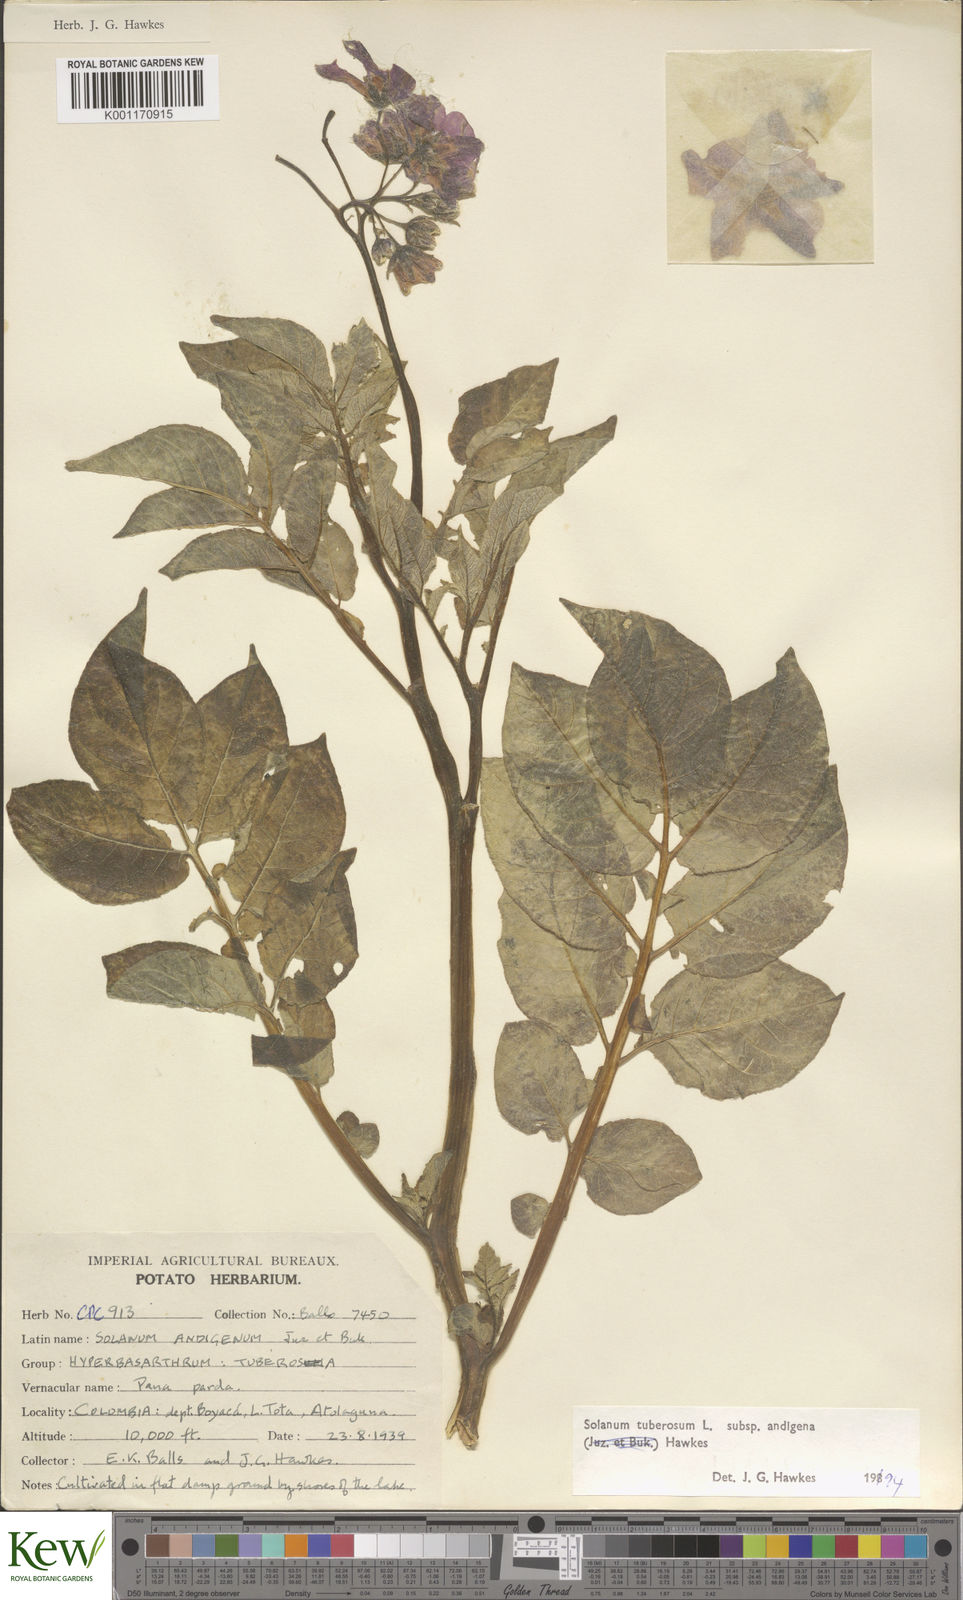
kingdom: Plantae
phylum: Tracheophyta
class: Magnoliopsida
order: Solanales
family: Solanaceae
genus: Solanum
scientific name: Solanum tuberosum
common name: Potato
